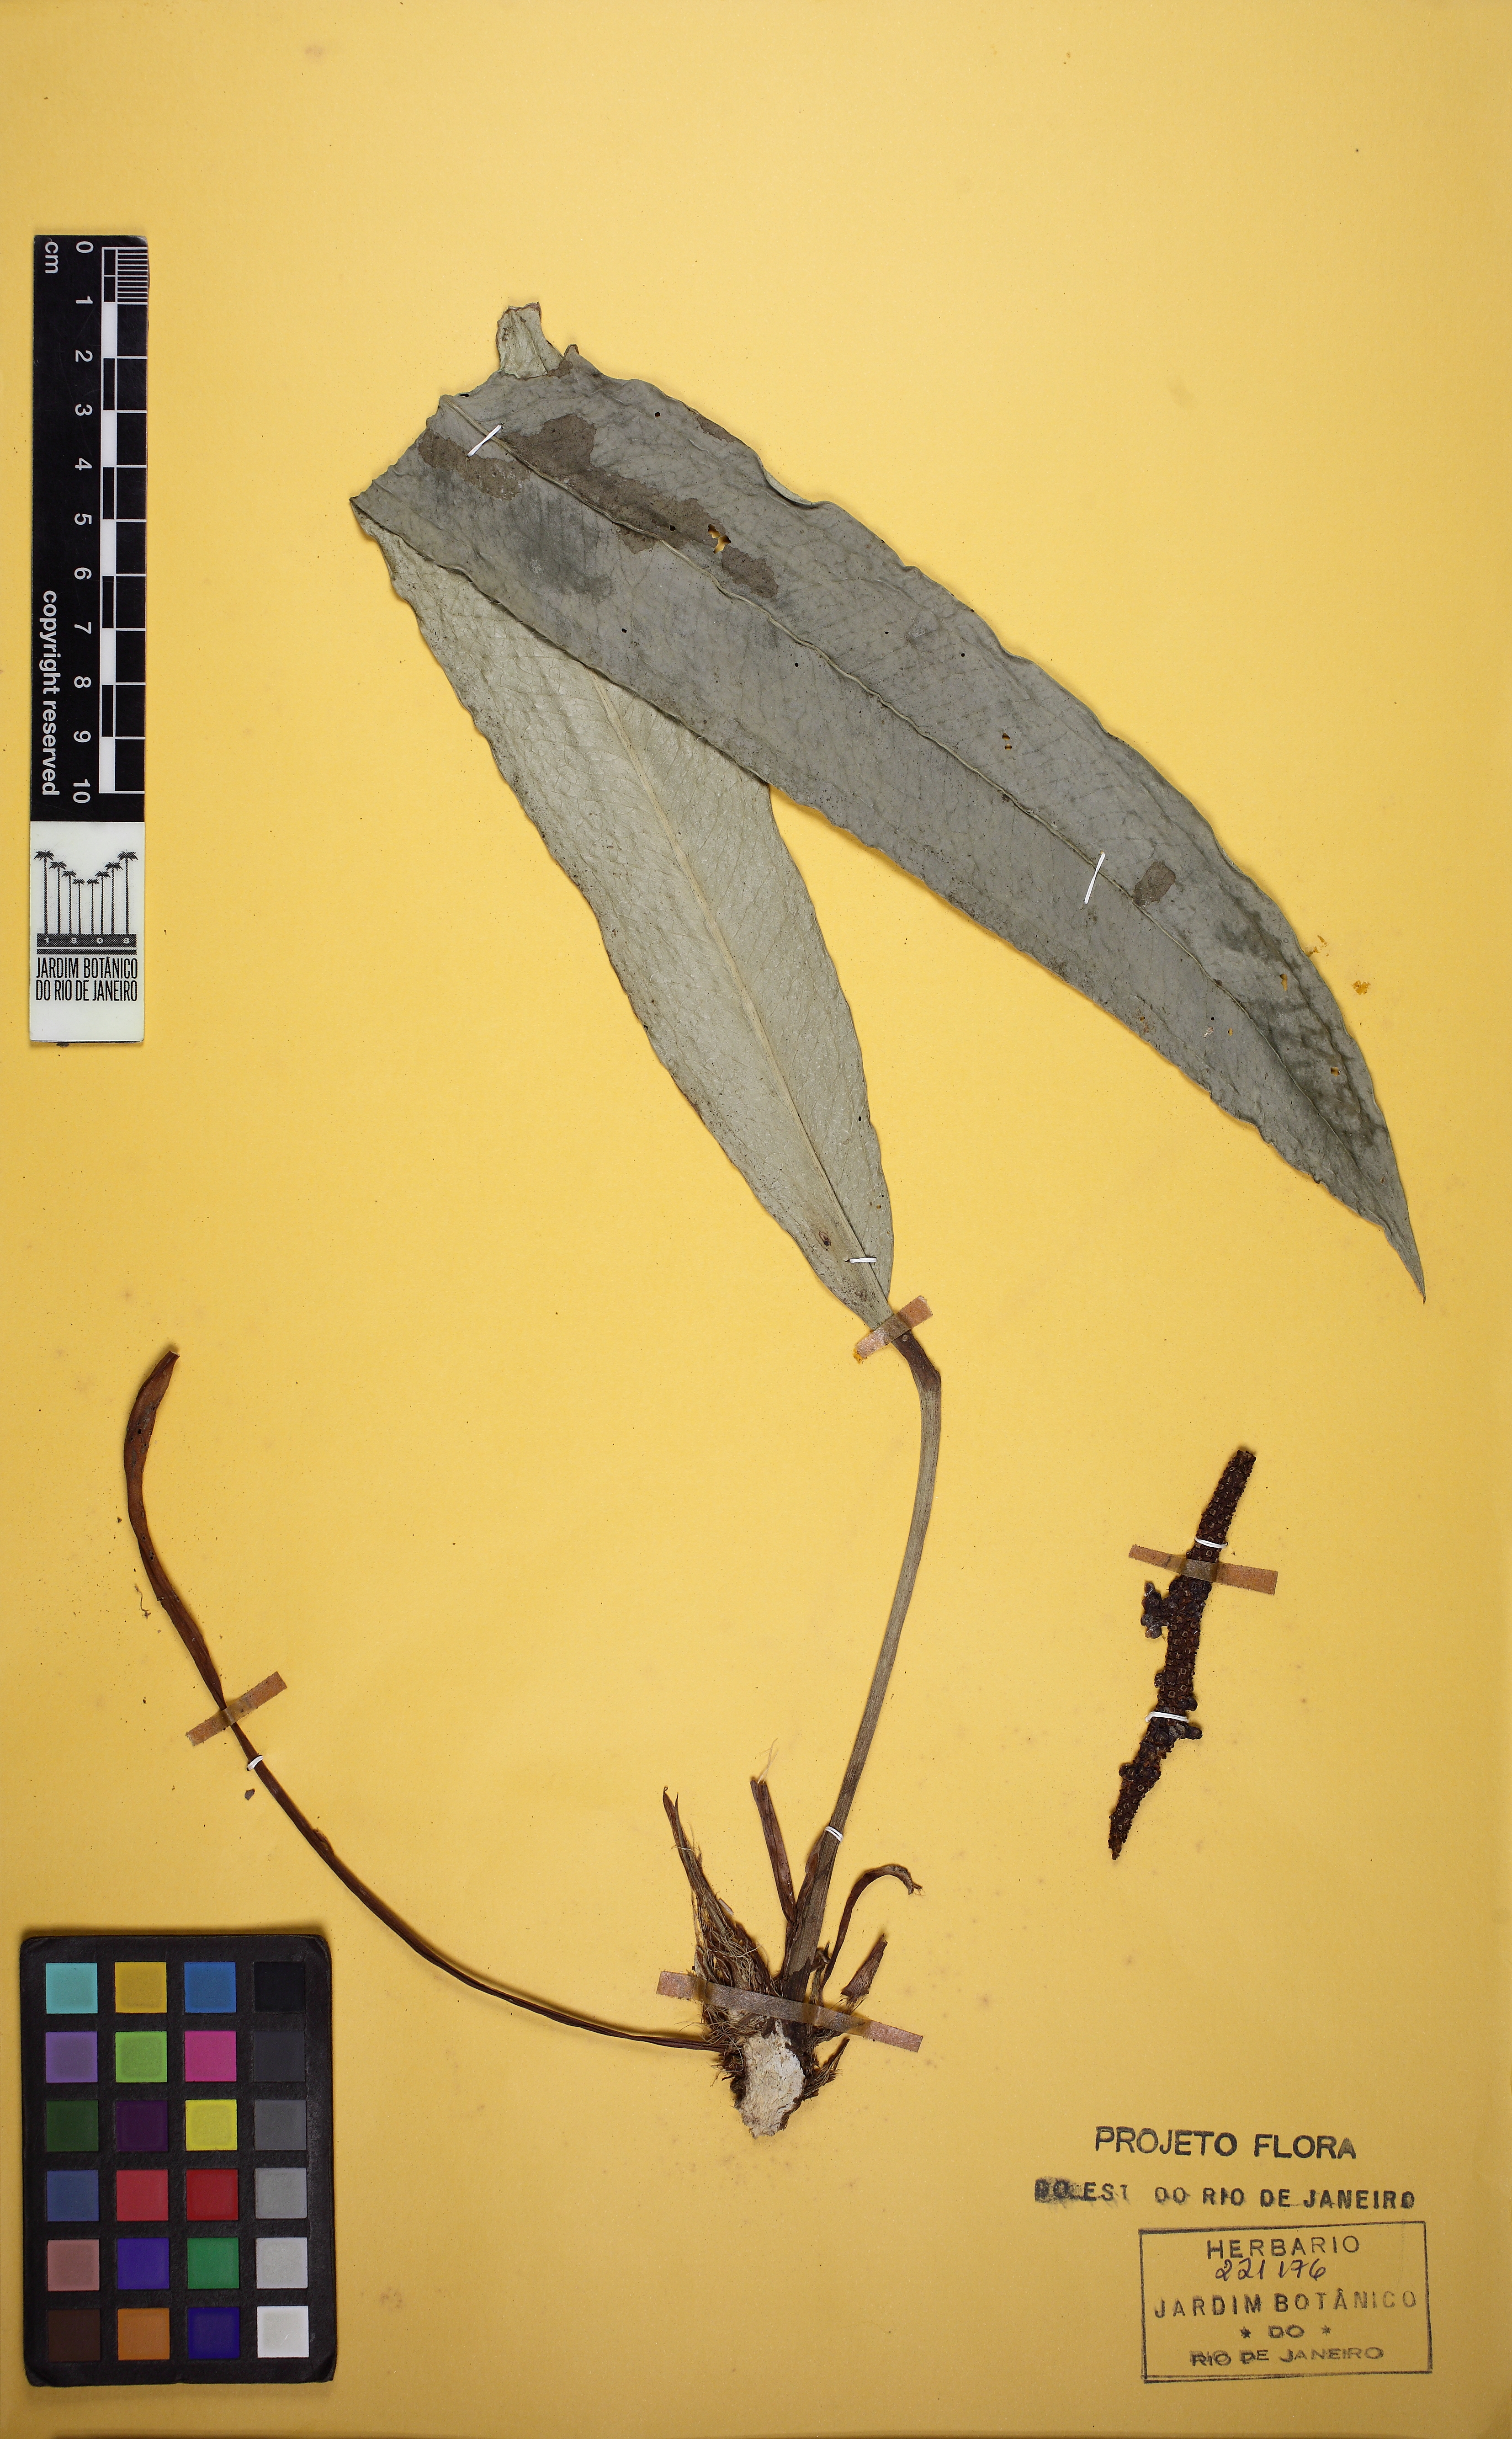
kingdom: Plantae
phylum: Tracheophyta
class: Liliopsida
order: Alismatales
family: Araceae
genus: Anthurium
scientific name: Anthurium longifolium
